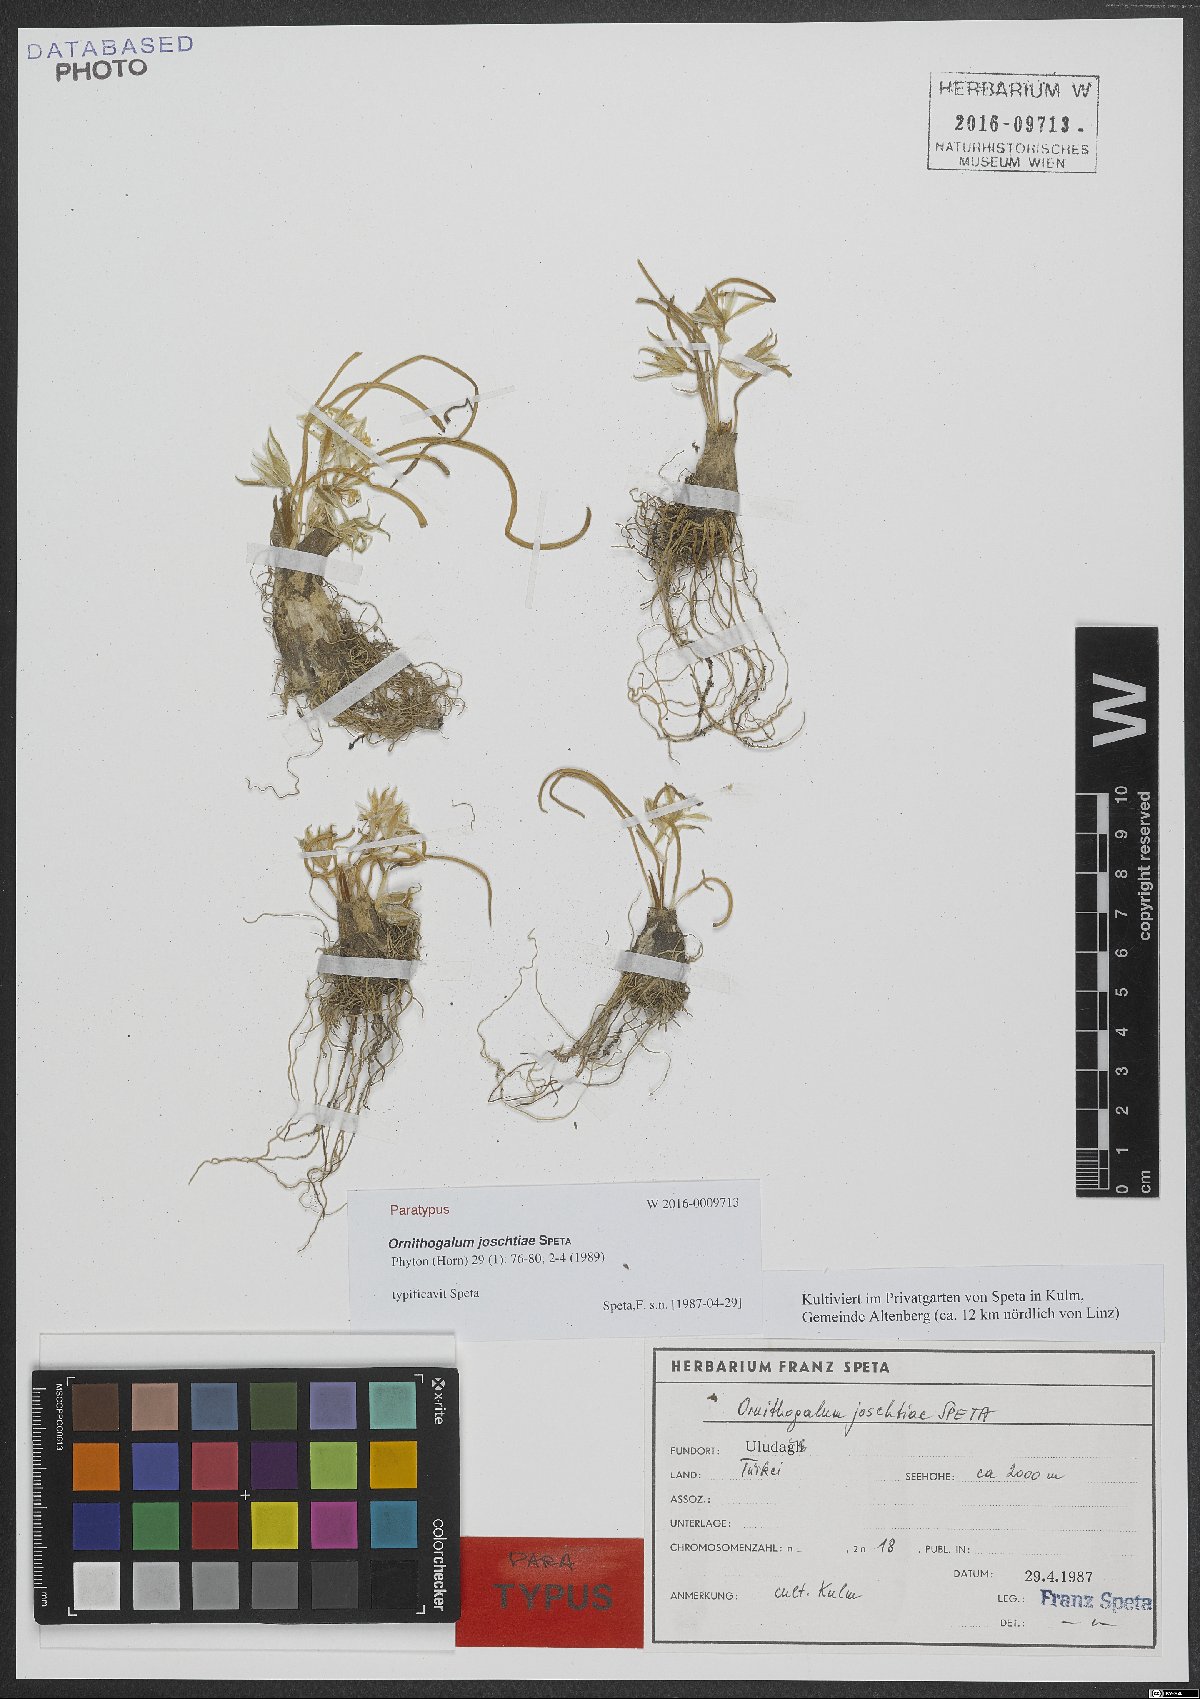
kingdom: Plantae
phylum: Tracheophyta
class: Liliopsida
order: Asparagales
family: Asparagaceae
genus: Ornithogalum
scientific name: Ornithogalum joschtiae
